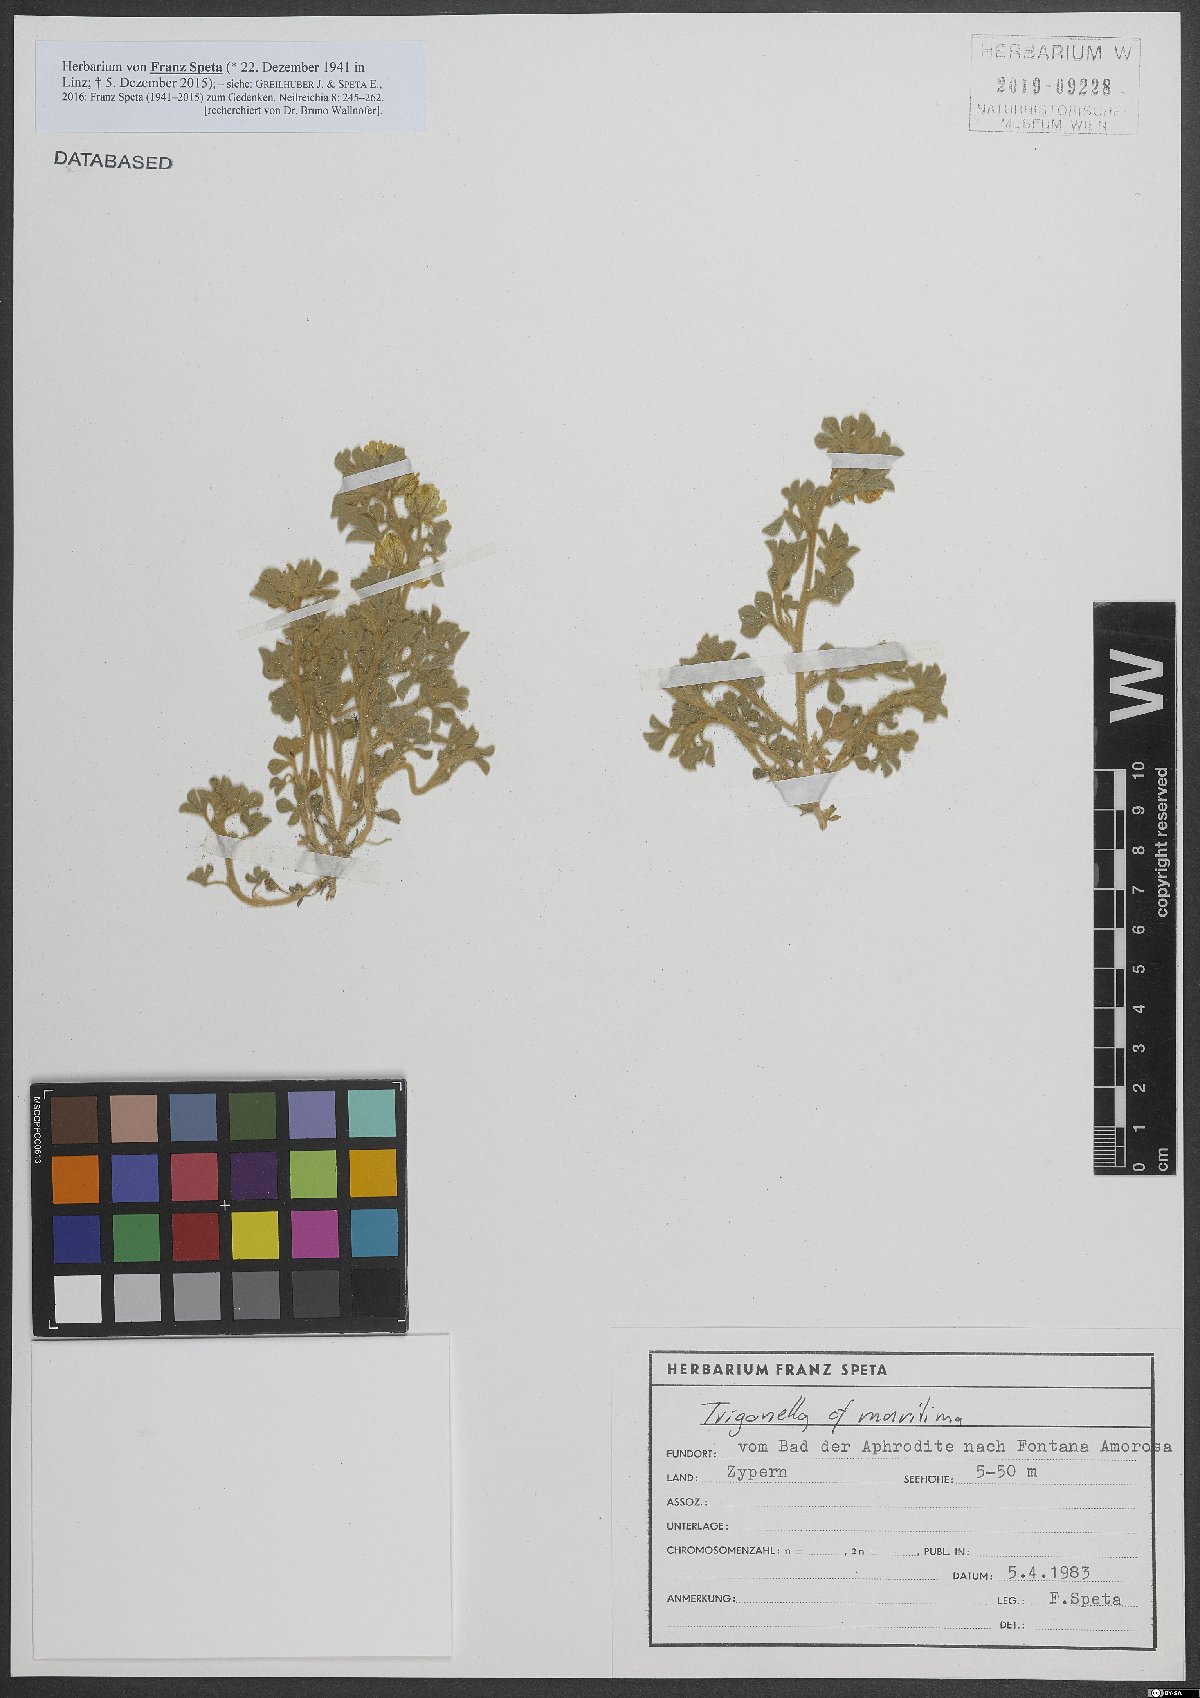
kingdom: Plantae
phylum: Tracheophyta
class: Magnoliopsida
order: Fabales
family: Fabaceae
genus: Trigonella
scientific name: Trigonella maritima
